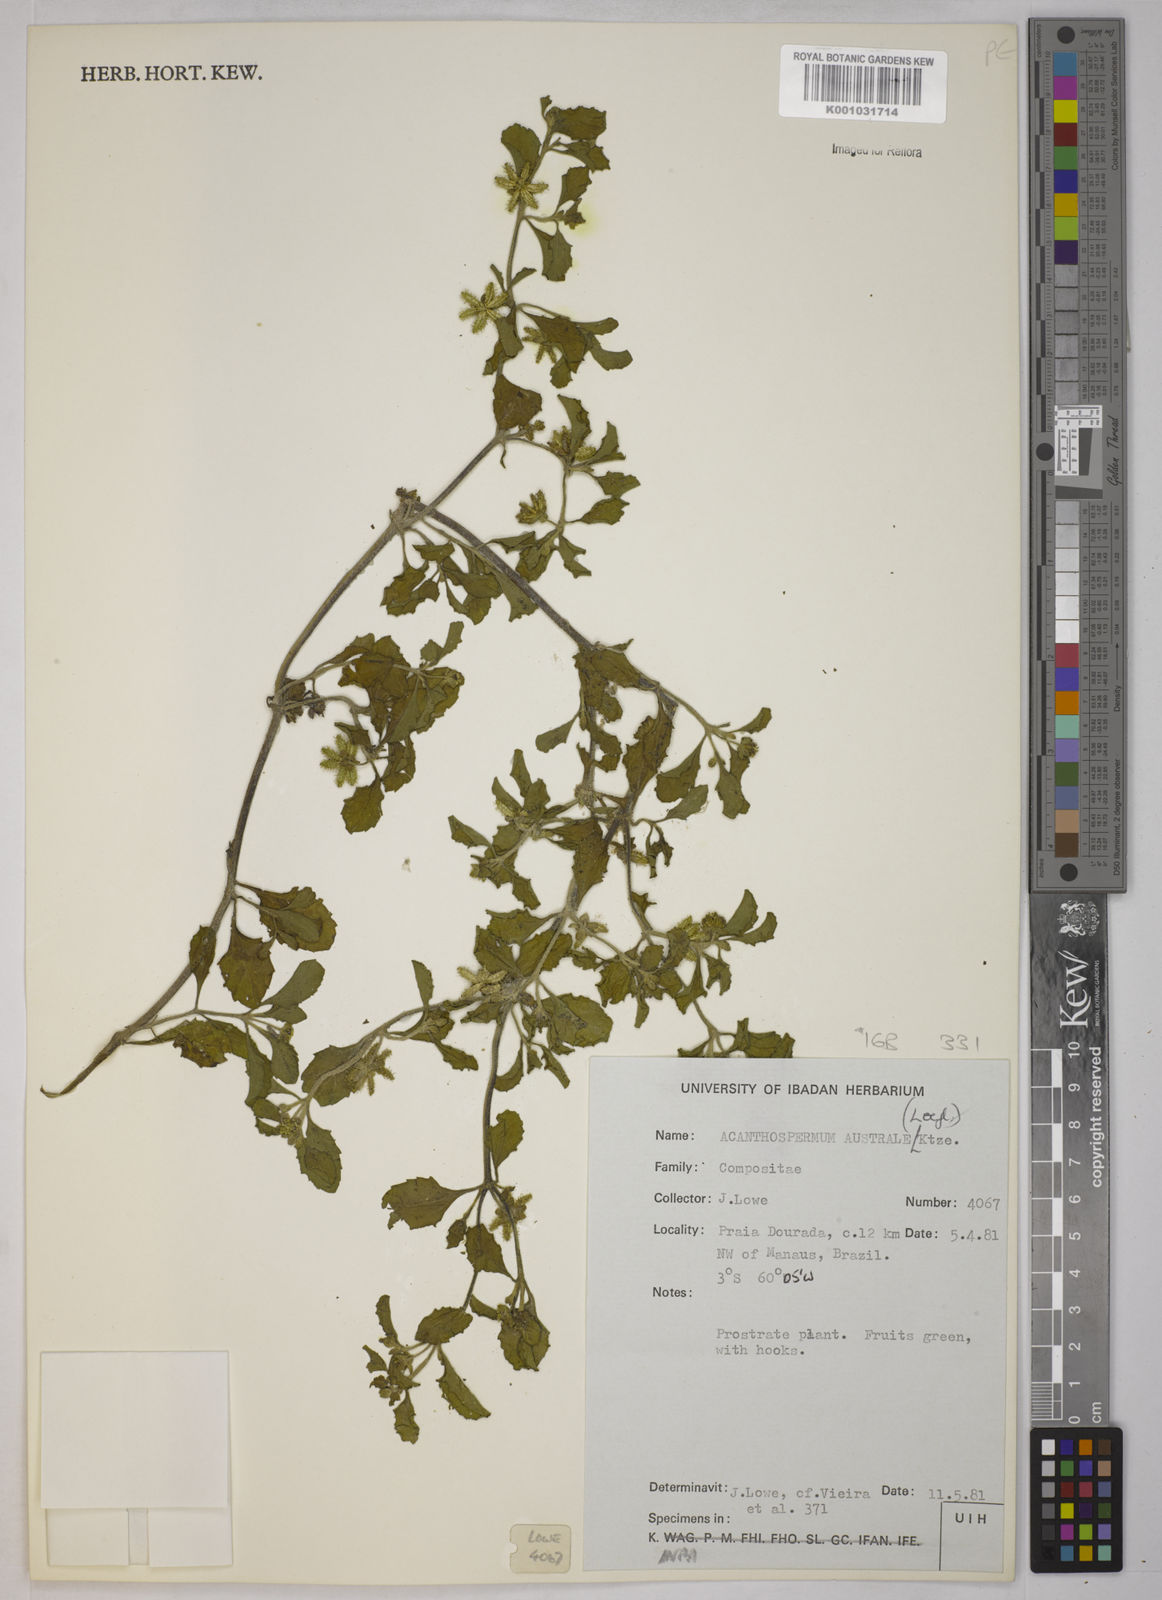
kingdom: Plantae
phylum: Tracheophyta
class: Magnoliopsida
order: Asterales
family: Asteraceae
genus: Acanthospermum
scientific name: Acanthospermum australe
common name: Paraguayan starbur
